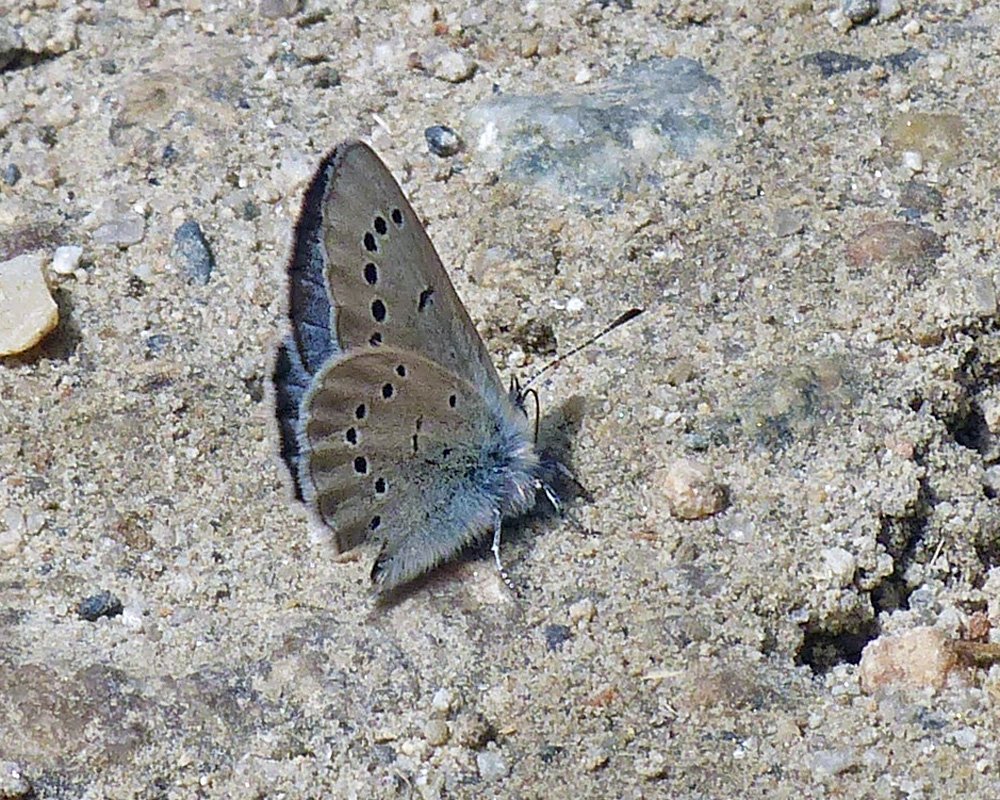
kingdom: Animalia
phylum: Arthropoda
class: Insecta
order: Lepidoptera
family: Lycaenidae
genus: Glaucopsyche
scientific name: Glaucopsyche lygdamus
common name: Silvery Blue
